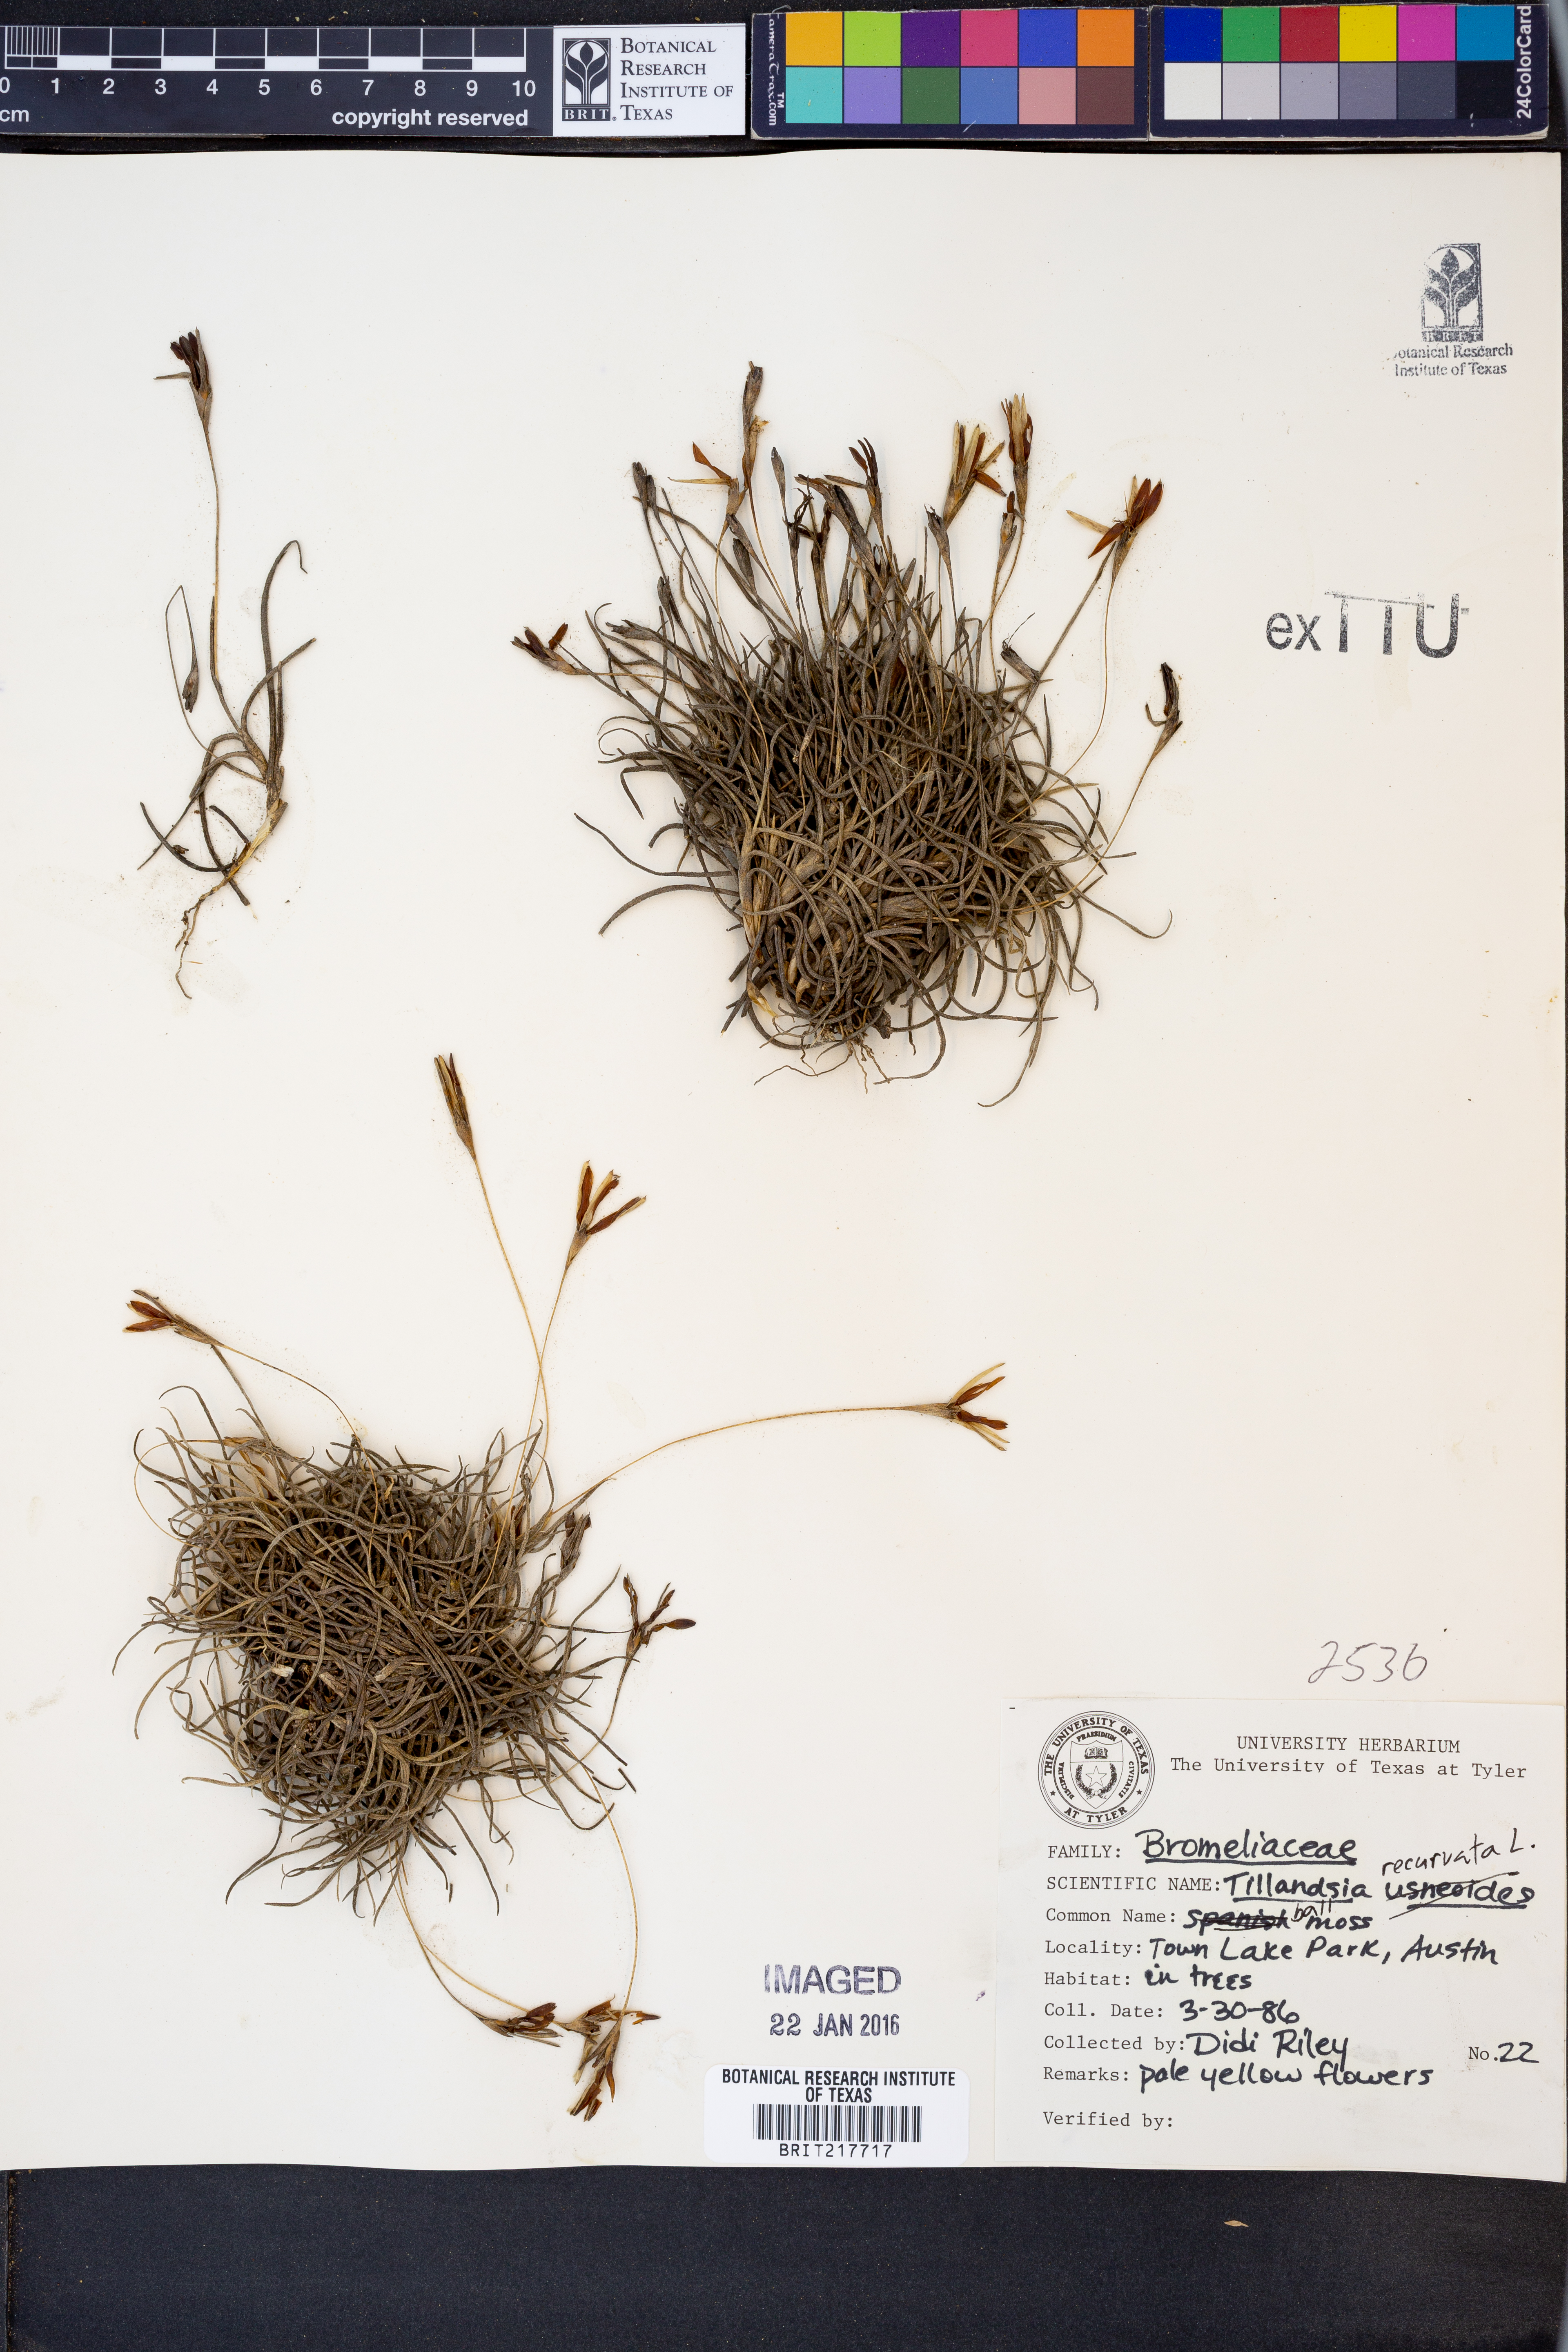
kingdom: Plantae
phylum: Tracheophyta
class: Liliopsida
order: Poales
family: Bromeliaceae
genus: Tillandsia
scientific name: Tillandsia recurvata
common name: Small ballmoss
